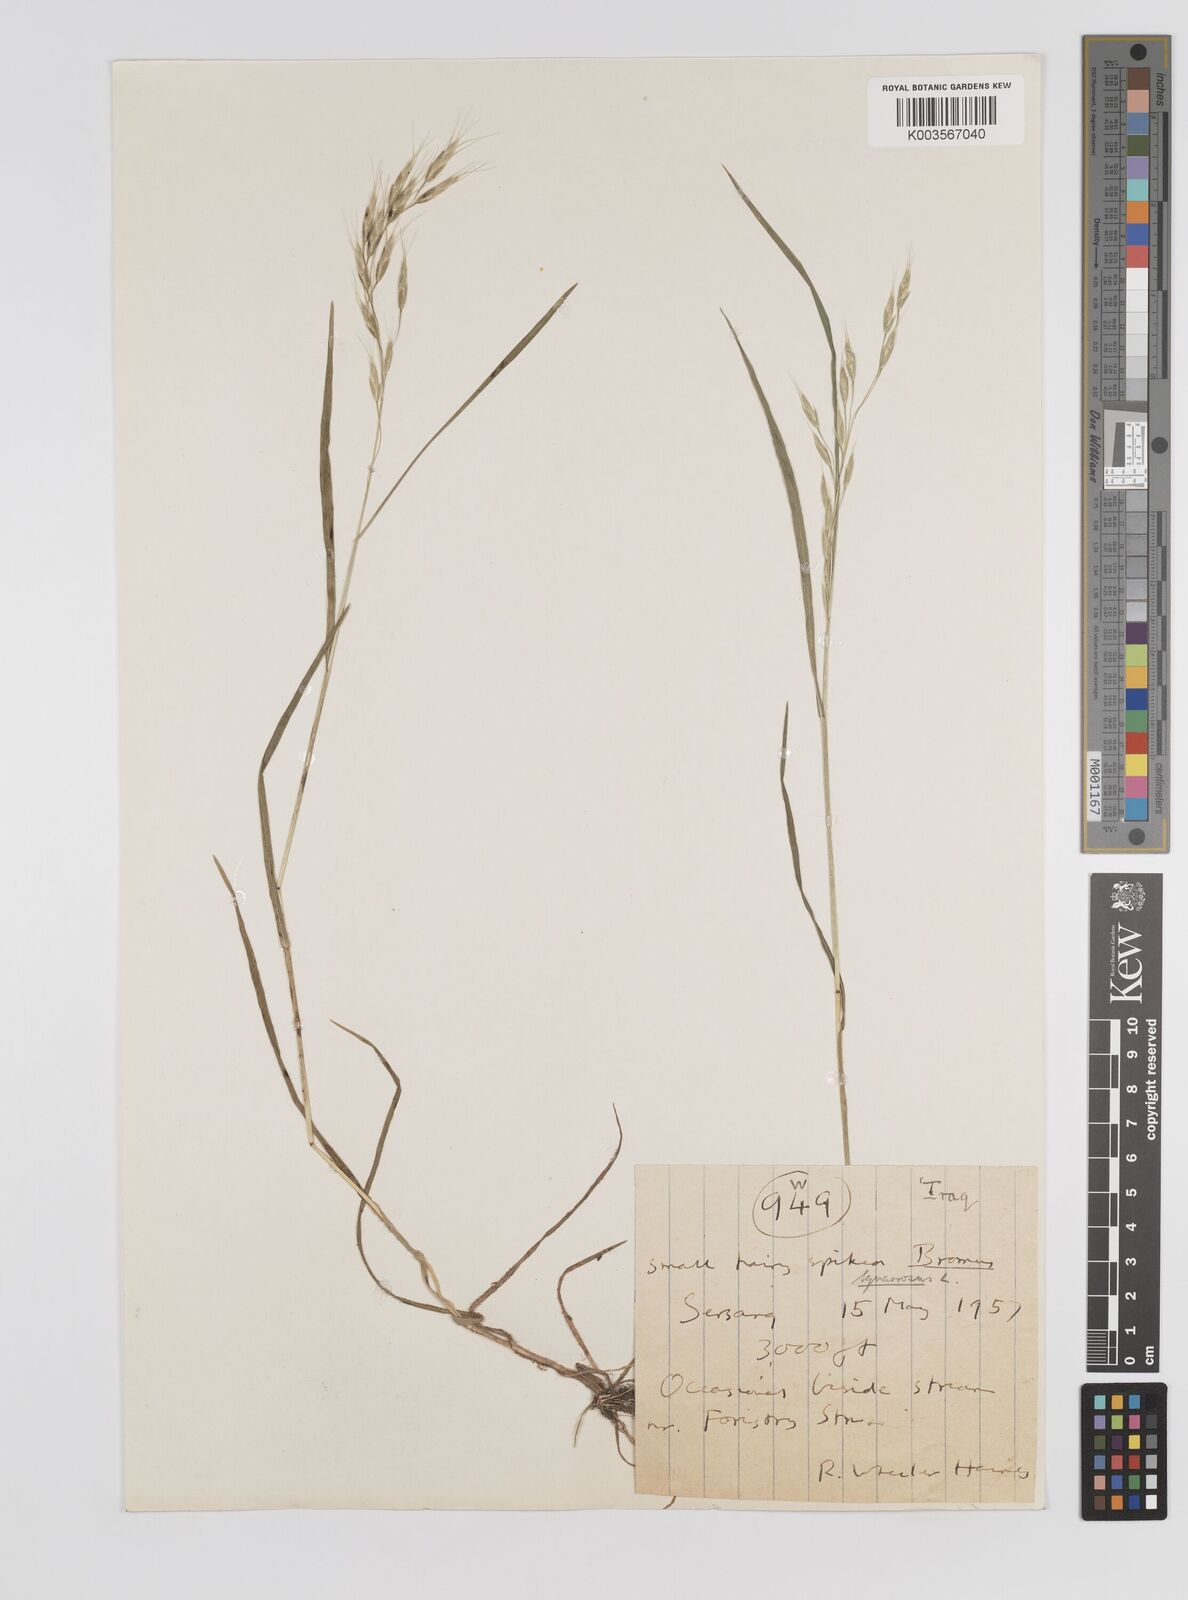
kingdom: Plantae
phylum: Tracheophyta
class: Liliopsida
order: Poales
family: Poaceae
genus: Bromus
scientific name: Bromus danthoniae
